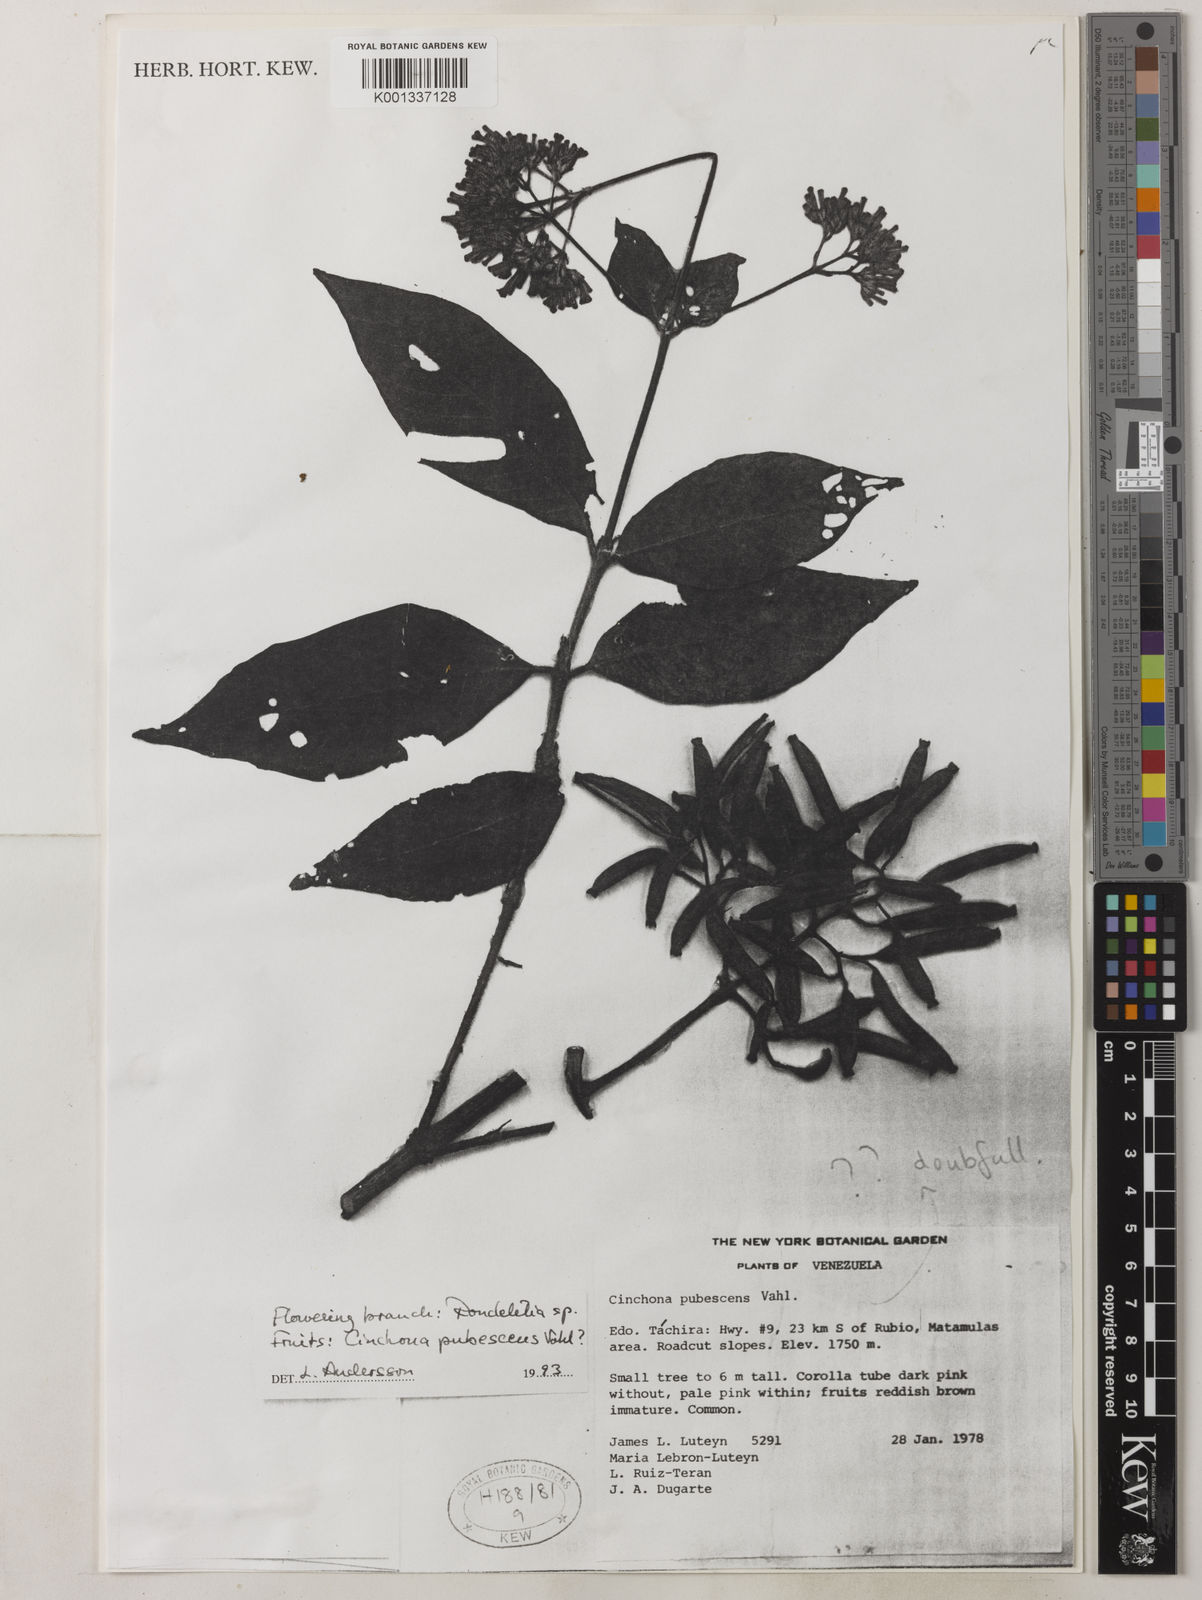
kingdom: Plantae
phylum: Tracheophyta
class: Magnoliopsida
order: Gentianales
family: Rubiaceae
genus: Cinchona
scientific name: Cinchona pubescens
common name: Quinine
